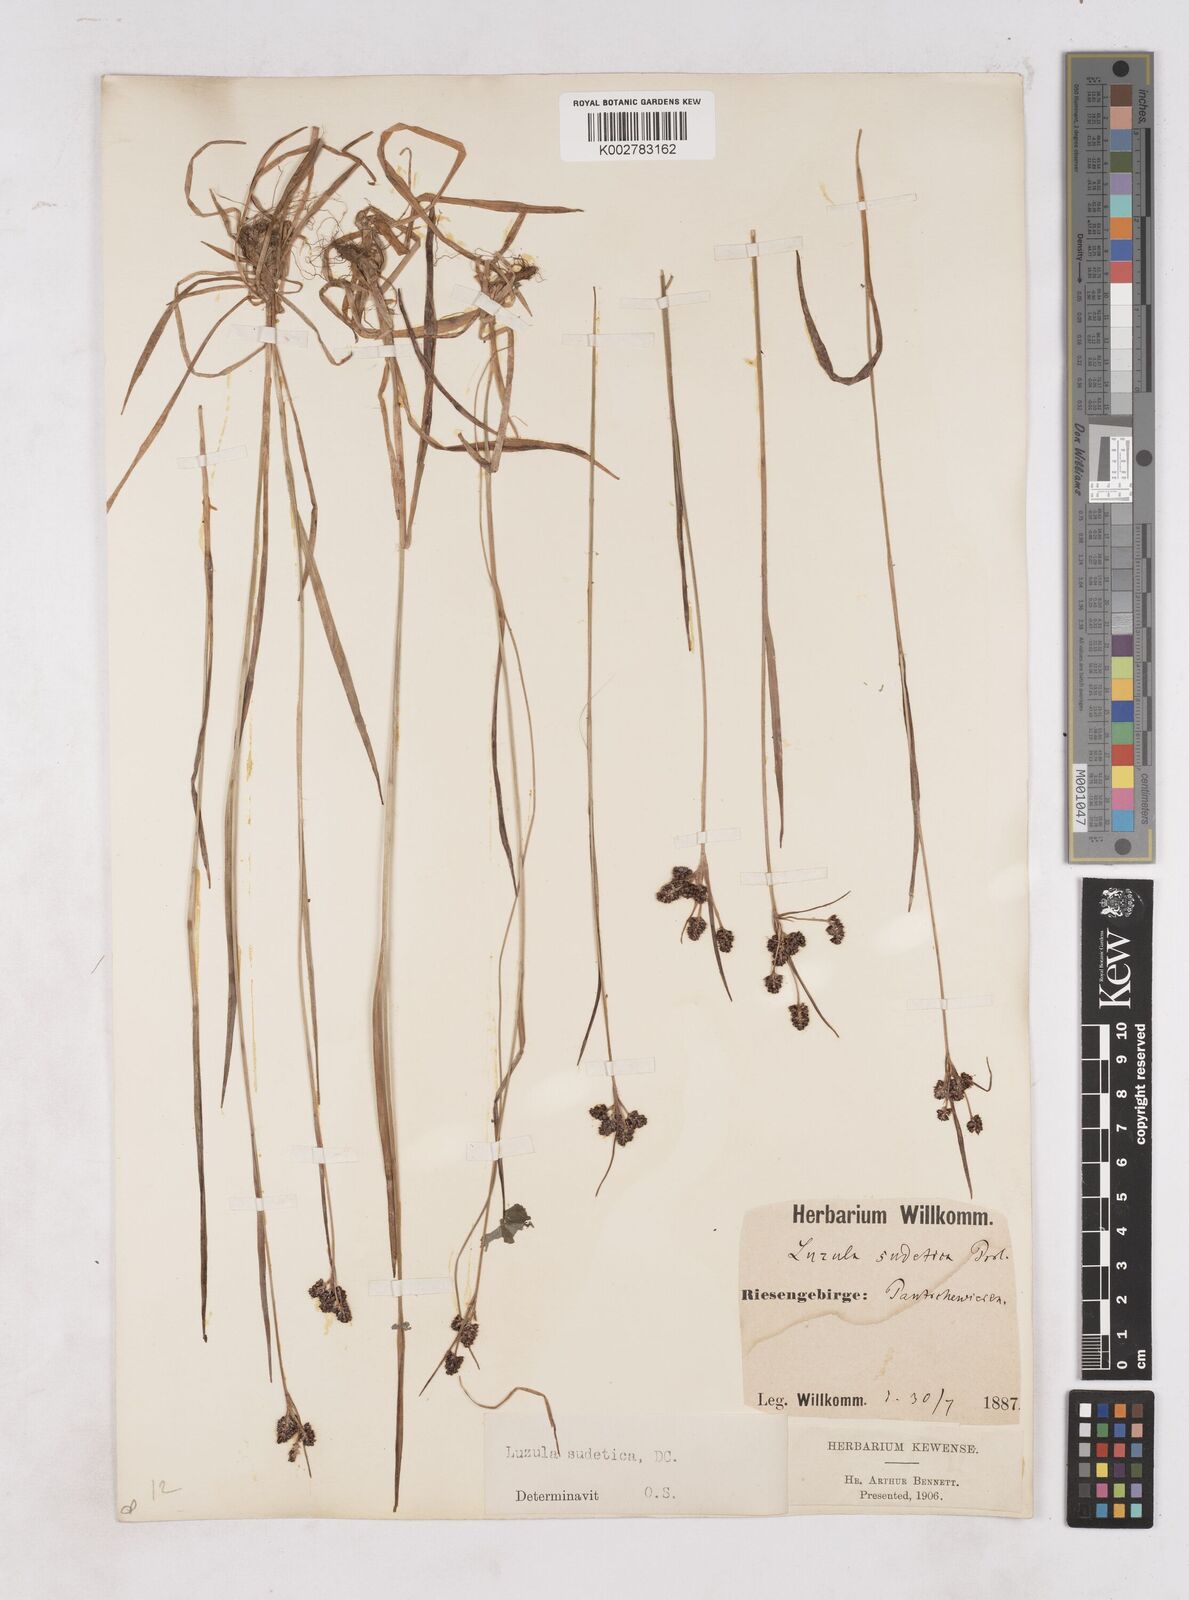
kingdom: Plantae
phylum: Tracheophyta
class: Liliopsida
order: Poales
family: Juncaceae
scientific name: Juncaceae
